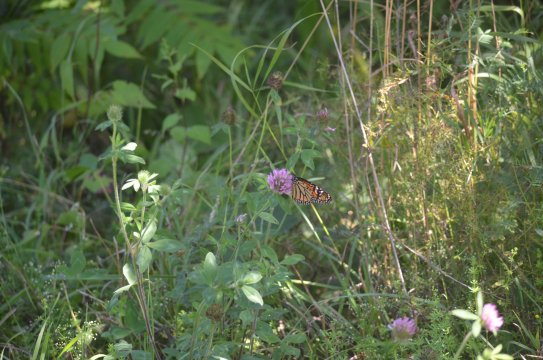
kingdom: Animalia
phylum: Arthropoda
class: Insecta
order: Lepidoptera
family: Nymphalidae
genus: Danaus
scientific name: Danaus plexippus
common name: Monarch
